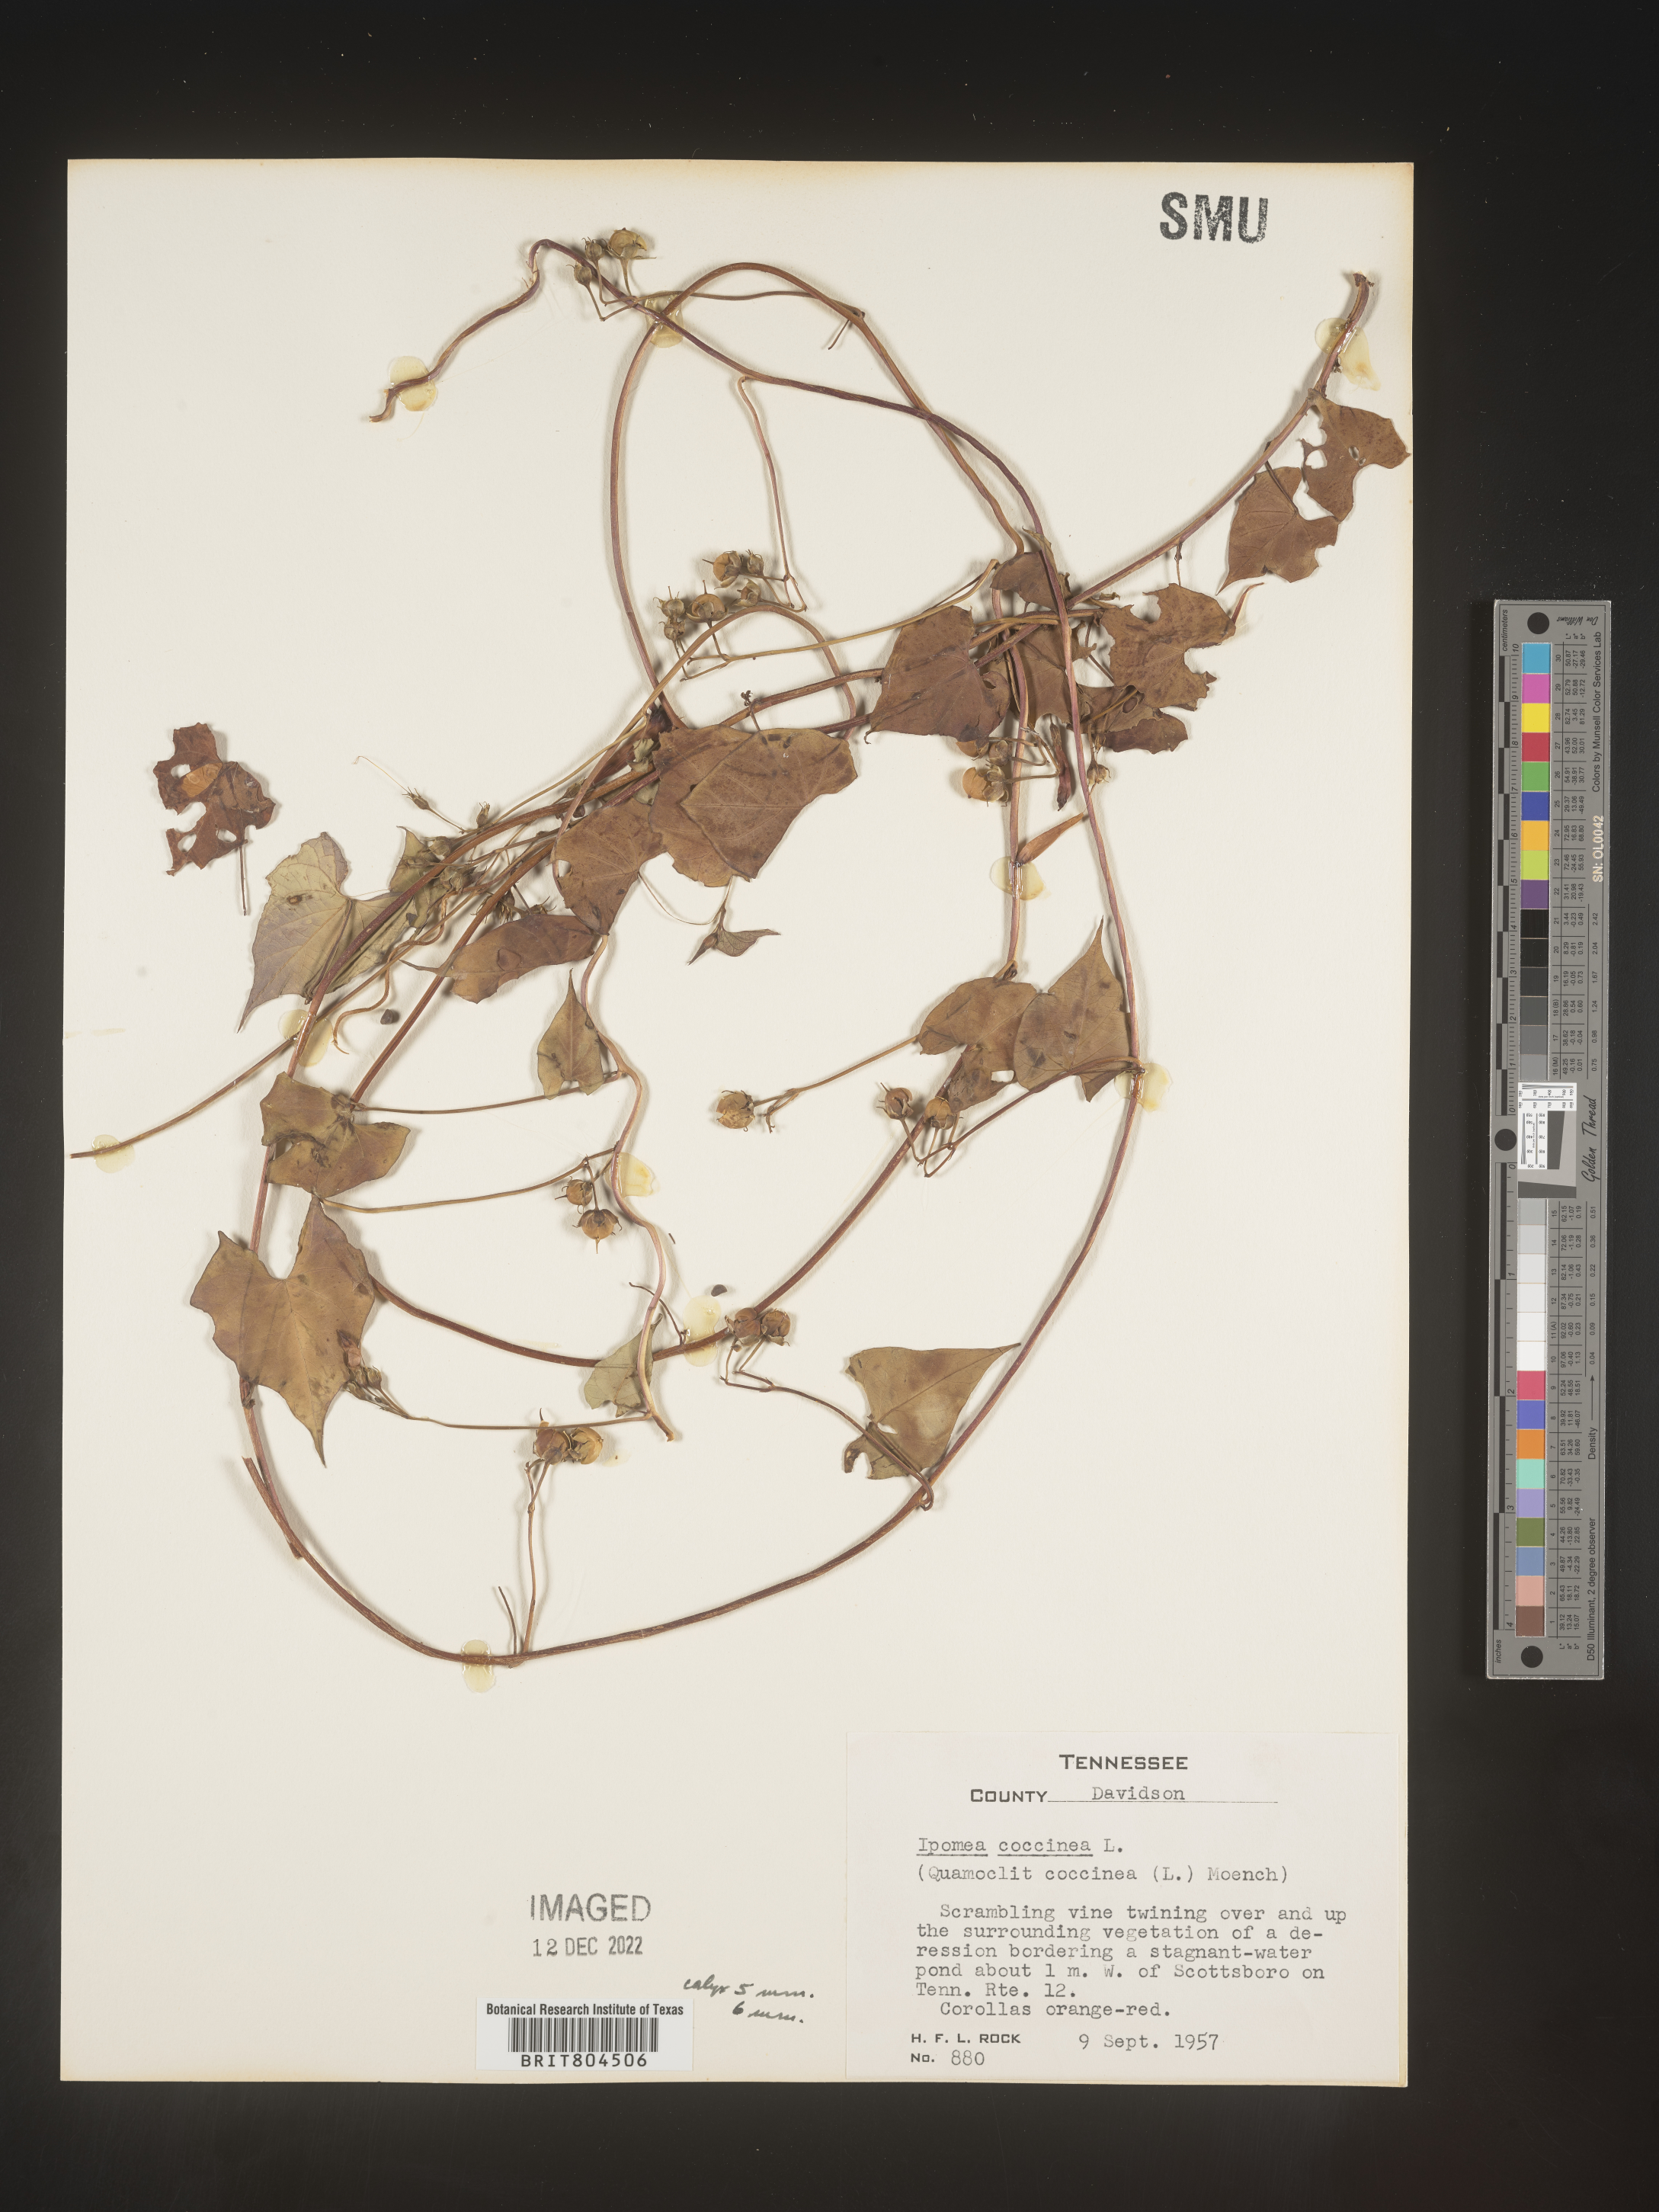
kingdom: Plantae
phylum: Tracheophyta
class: Magnoliopsida
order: Solanales
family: Convolvulaceae
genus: Ipomoea
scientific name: Ipomoea coccinea
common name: Red morning-glory
